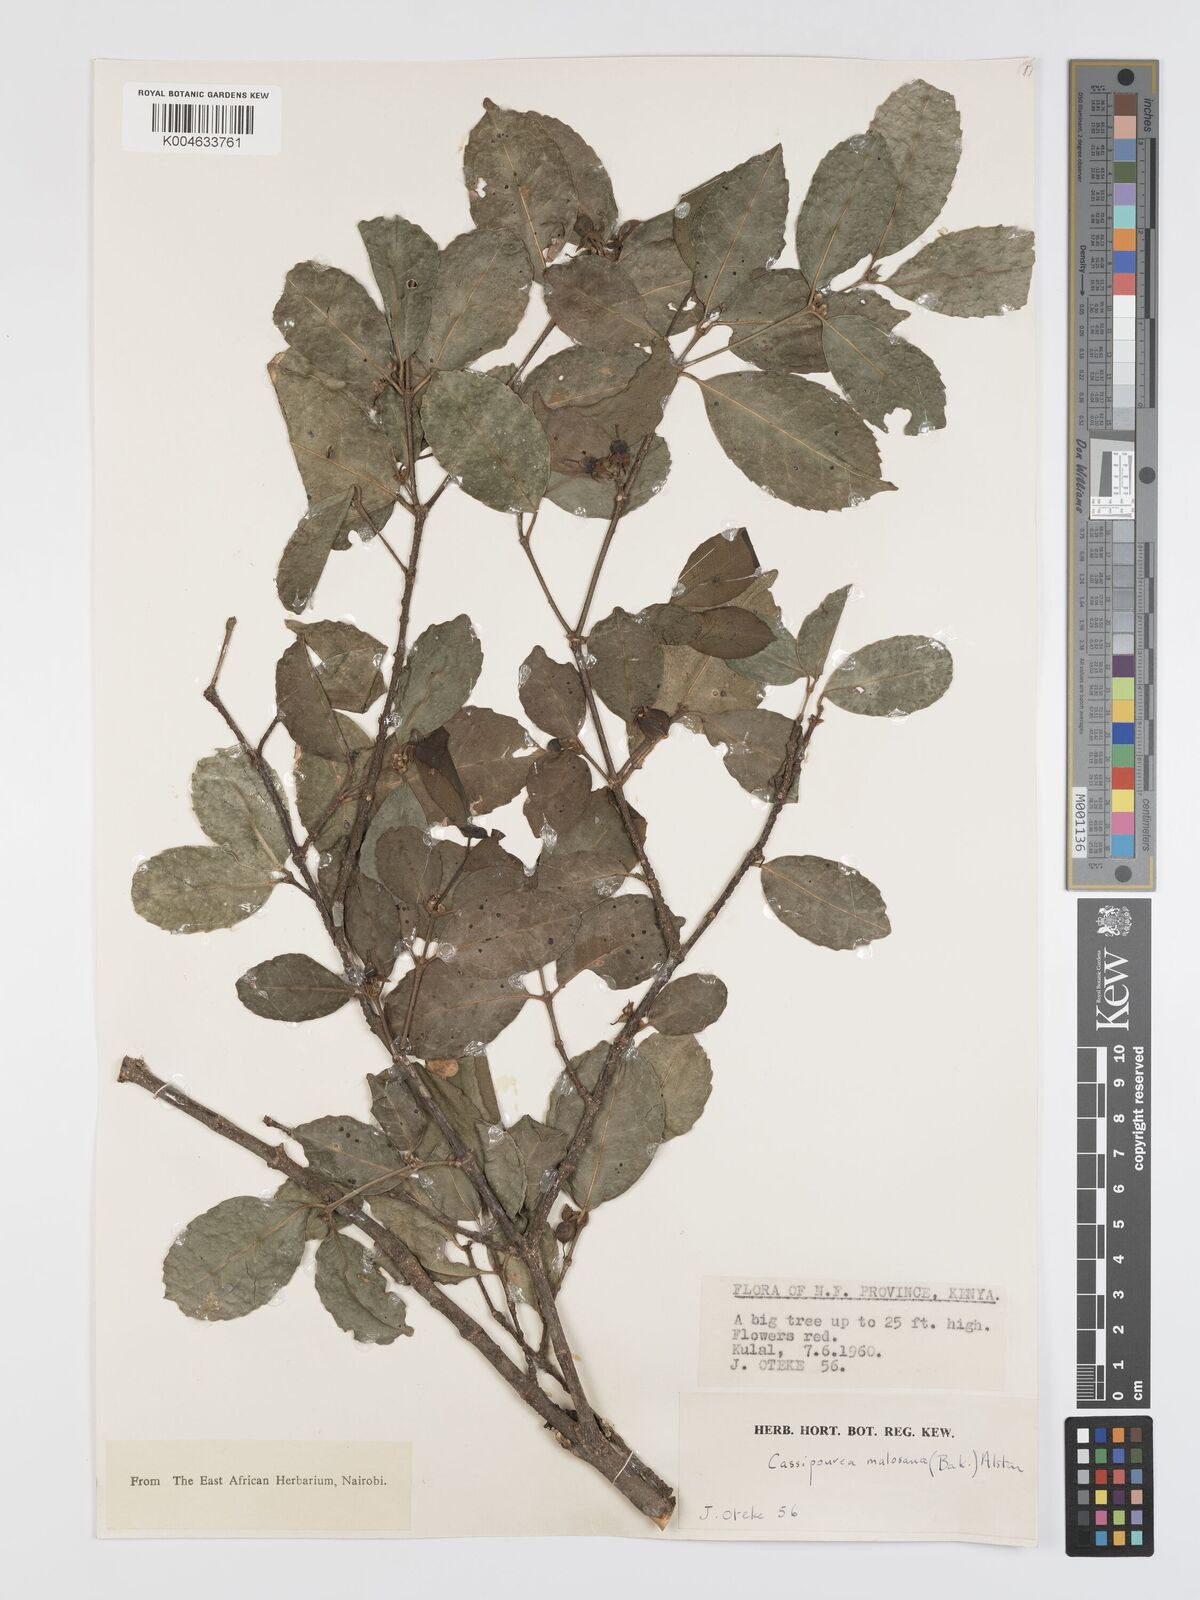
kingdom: Plantae
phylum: Tracheophyta
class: Magnoliopsida
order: Malpighiales
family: Rhizophoraceae
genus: Cassipourea
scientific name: Cassipourea malosana
